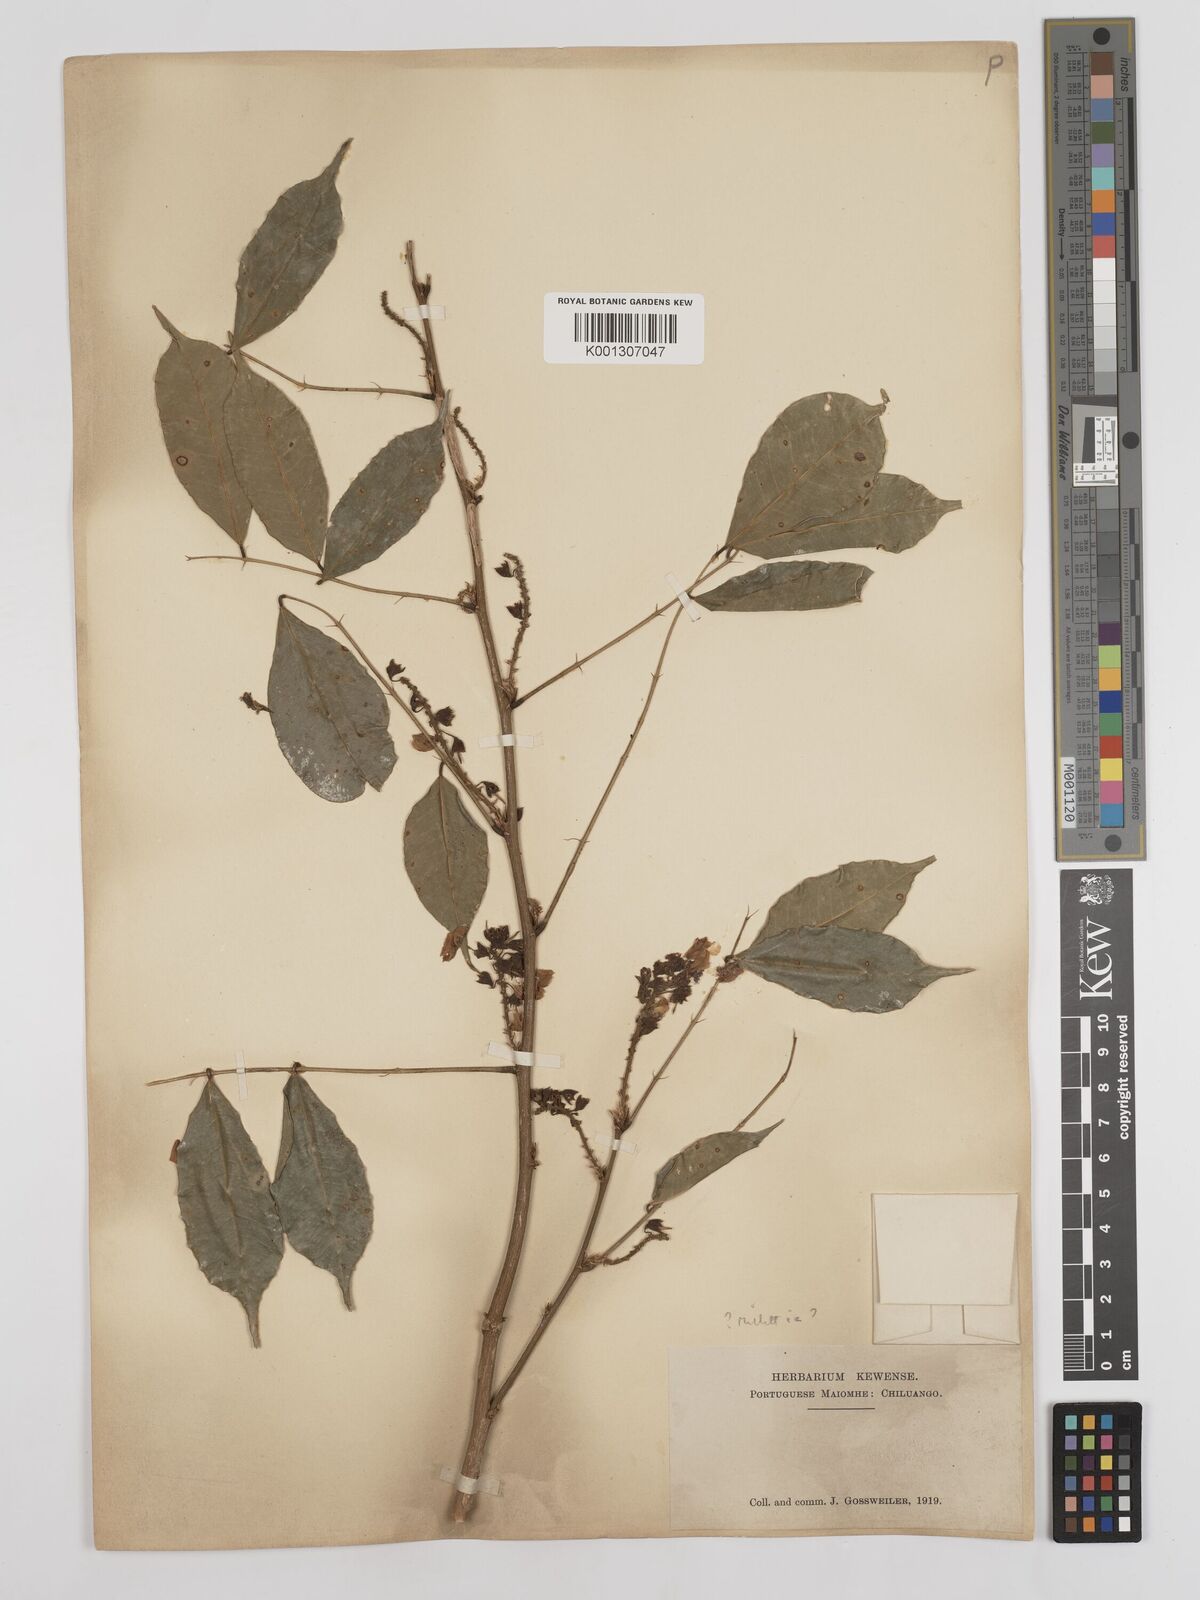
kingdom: Plantae
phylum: Tracheophyta
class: Magnoliopsida
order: Fabales
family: Fabaceae
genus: Millettia
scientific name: Millettia
